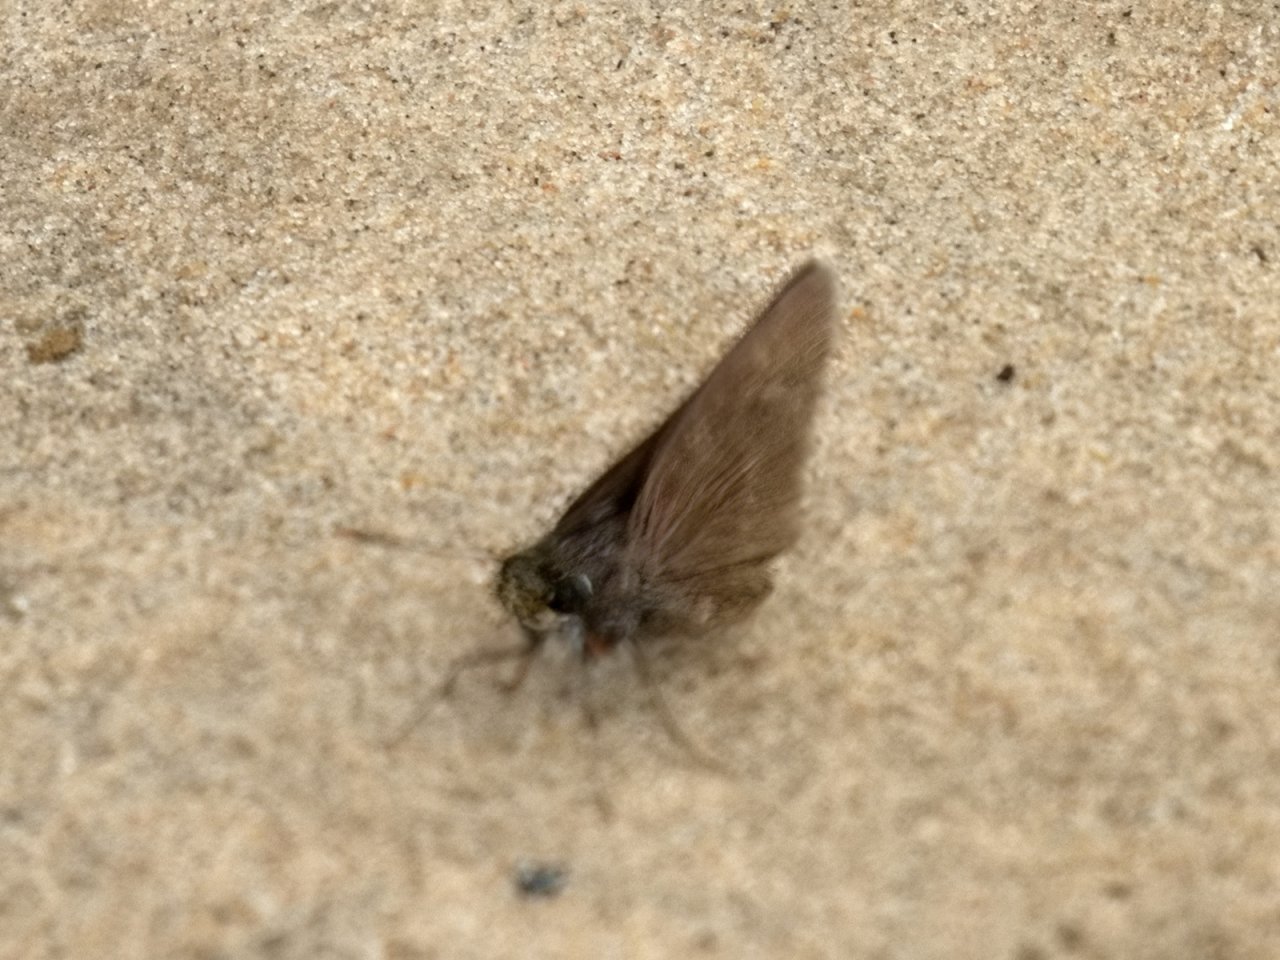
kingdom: Animalia
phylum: Arthropoda
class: Insecta
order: Lepidoptera
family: Hesperiidae
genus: Euphyes
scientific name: Euphyes vestris
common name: Dun Skipper
